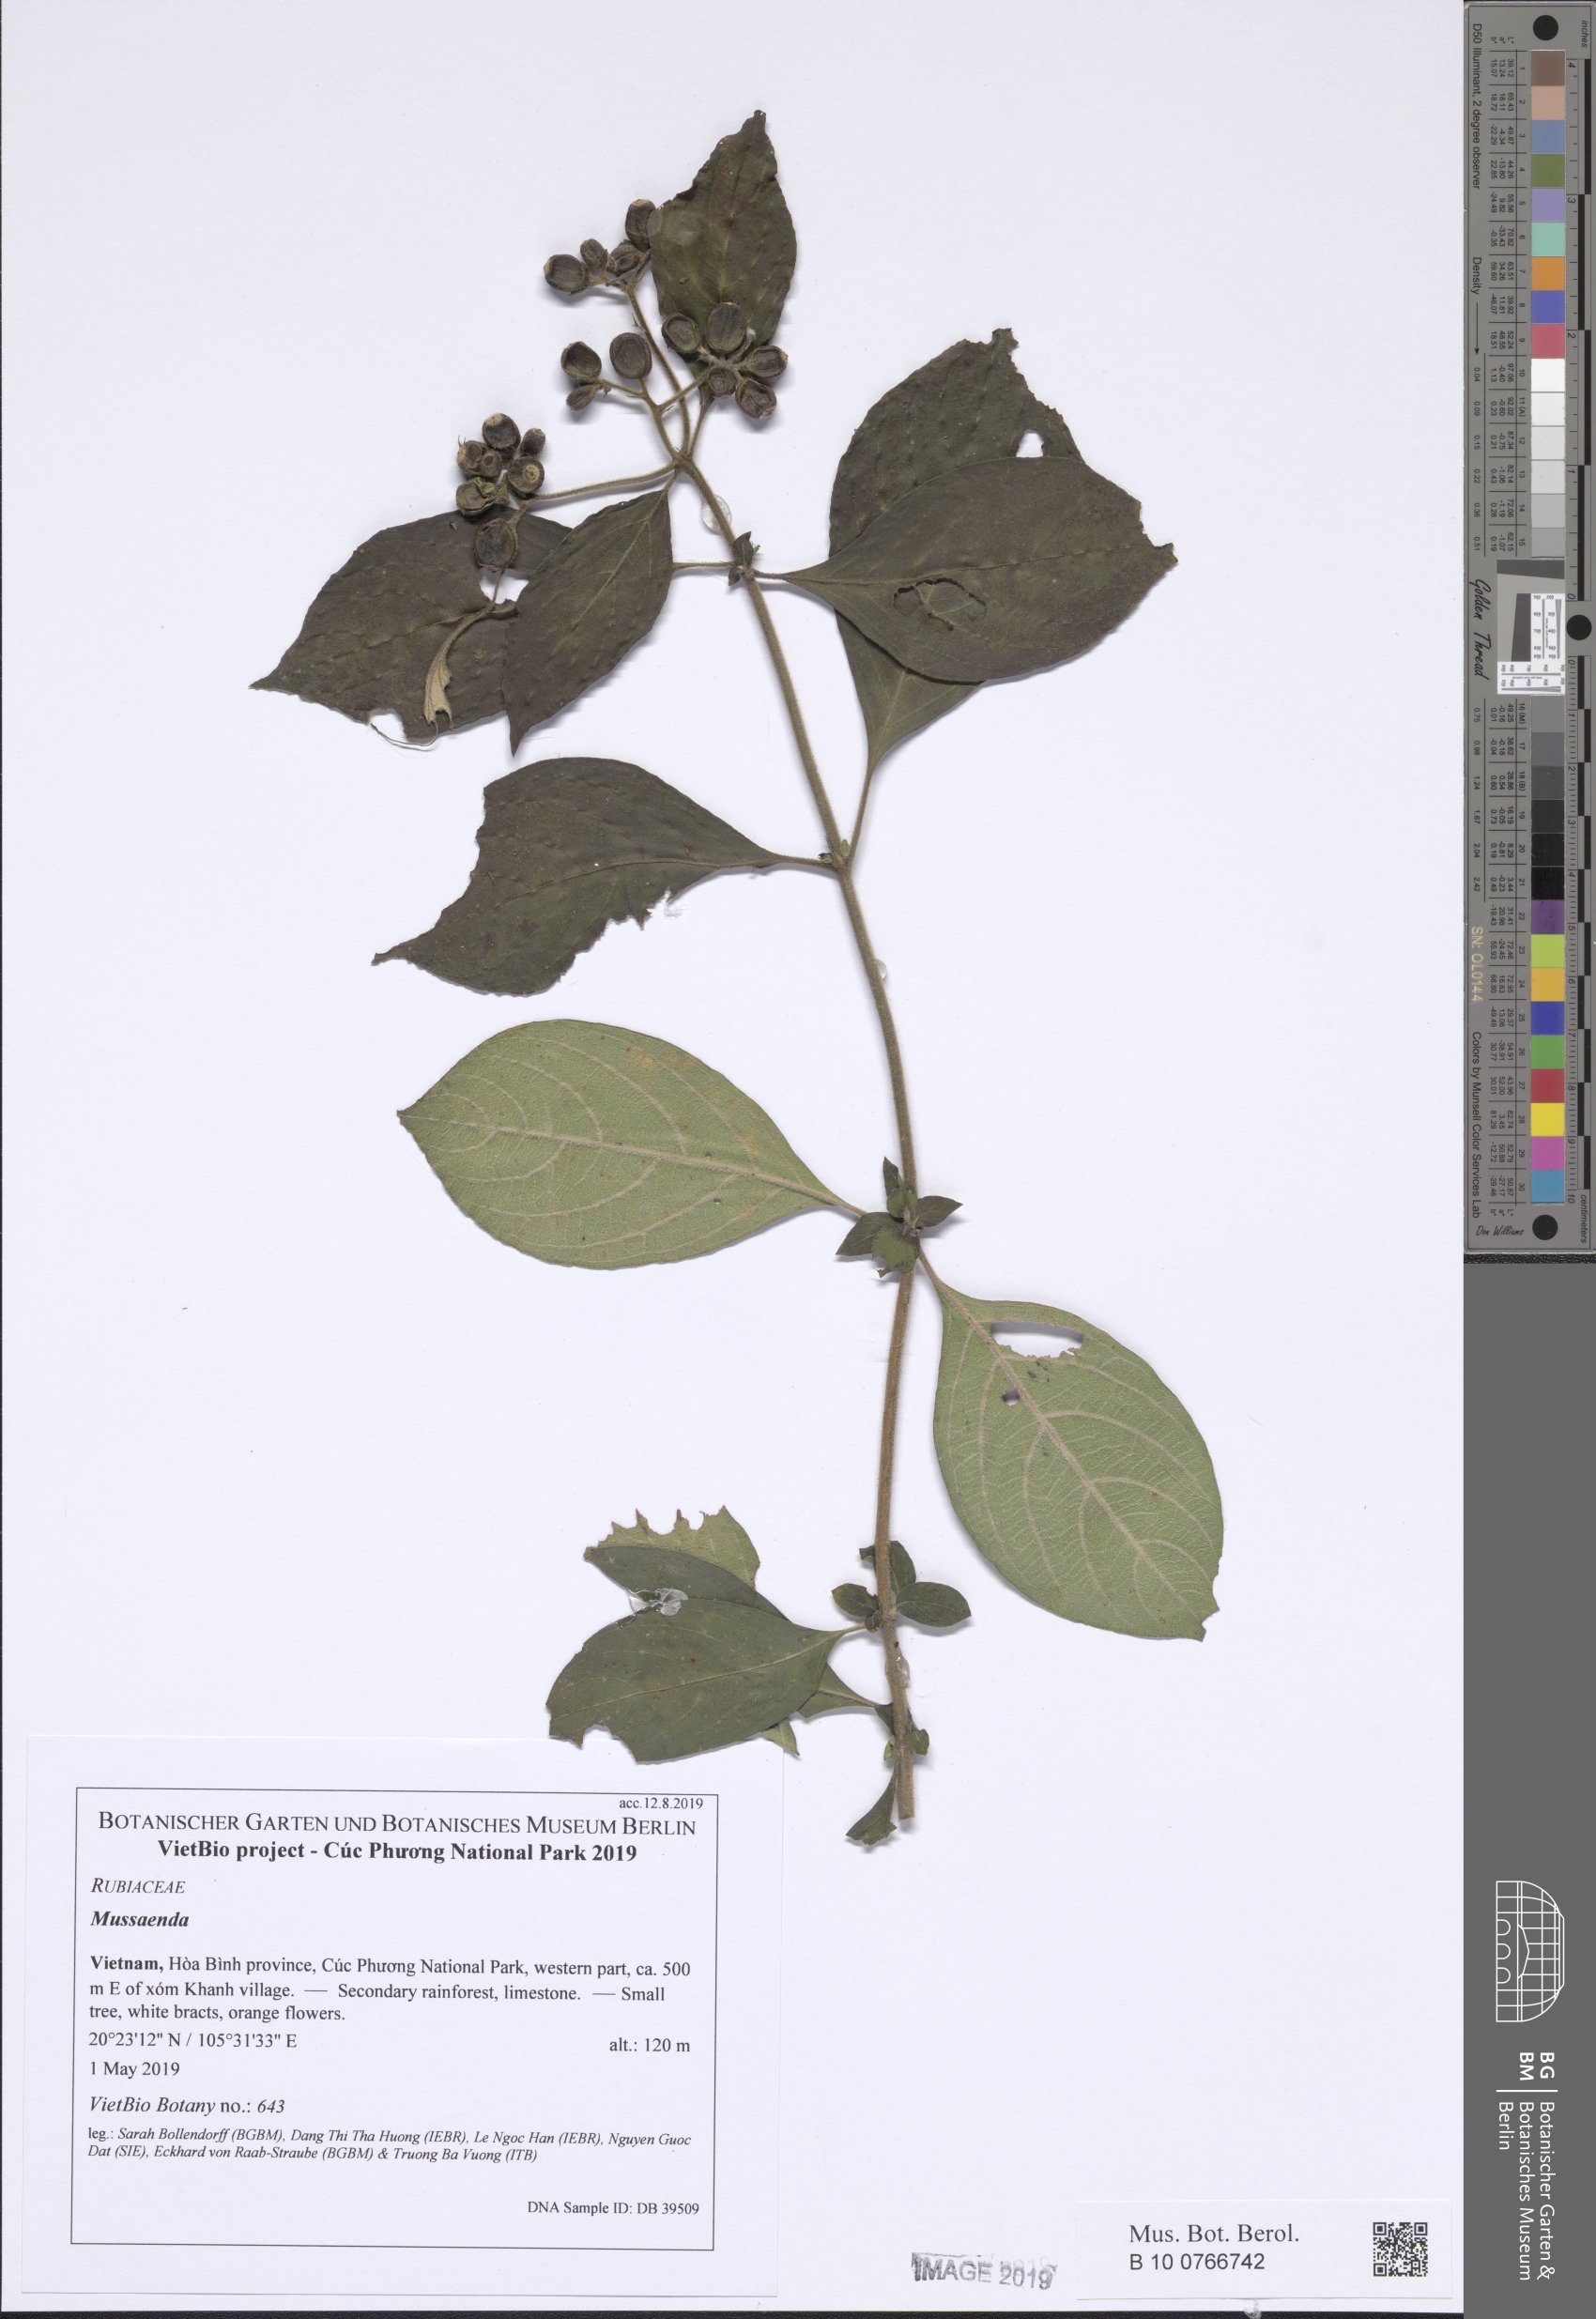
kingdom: Plantae
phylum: Tracheophyta
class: Magnoliopsida
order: Gentianales
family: Rubiaceae
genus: Mussaenda
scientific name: Mussaenda
